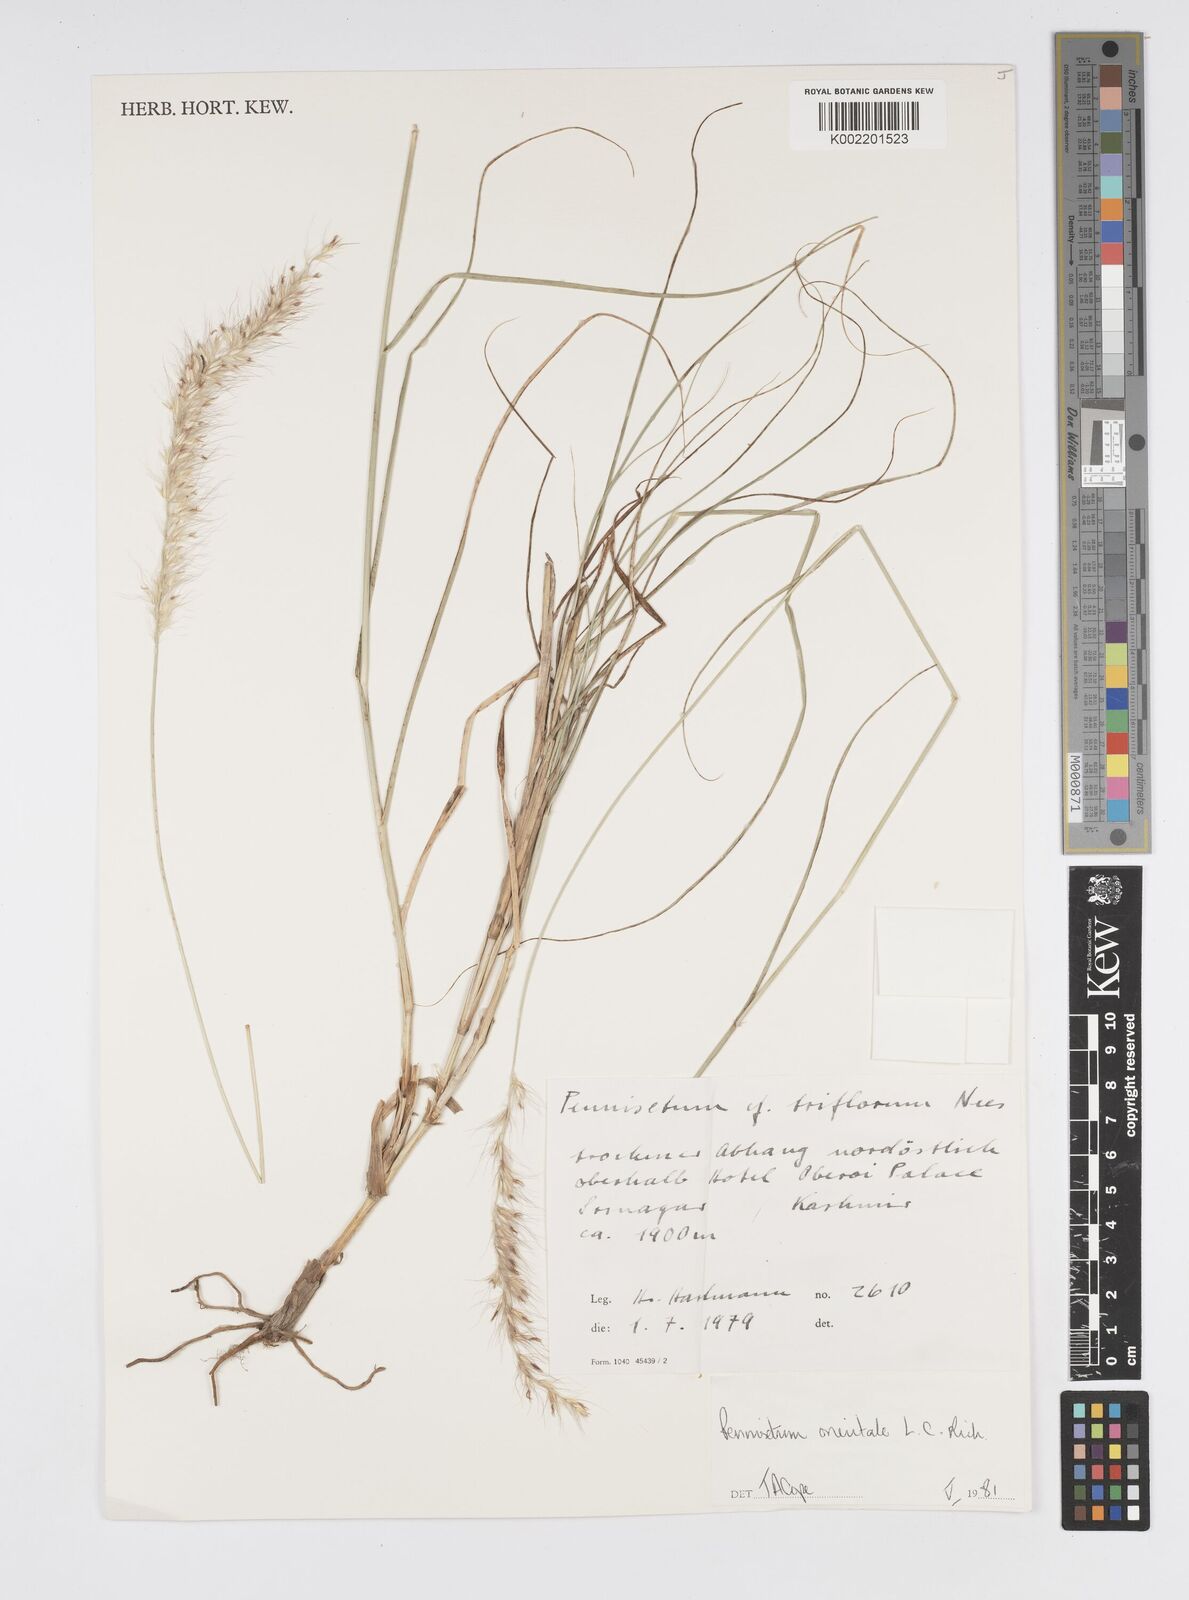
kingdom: Plantae
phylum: Tracheophyta
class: Liliopsida
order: Poales
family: Poaceae
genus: Cenchrus
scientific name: Cenchrus orientalis
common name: Oriental fountain grass
